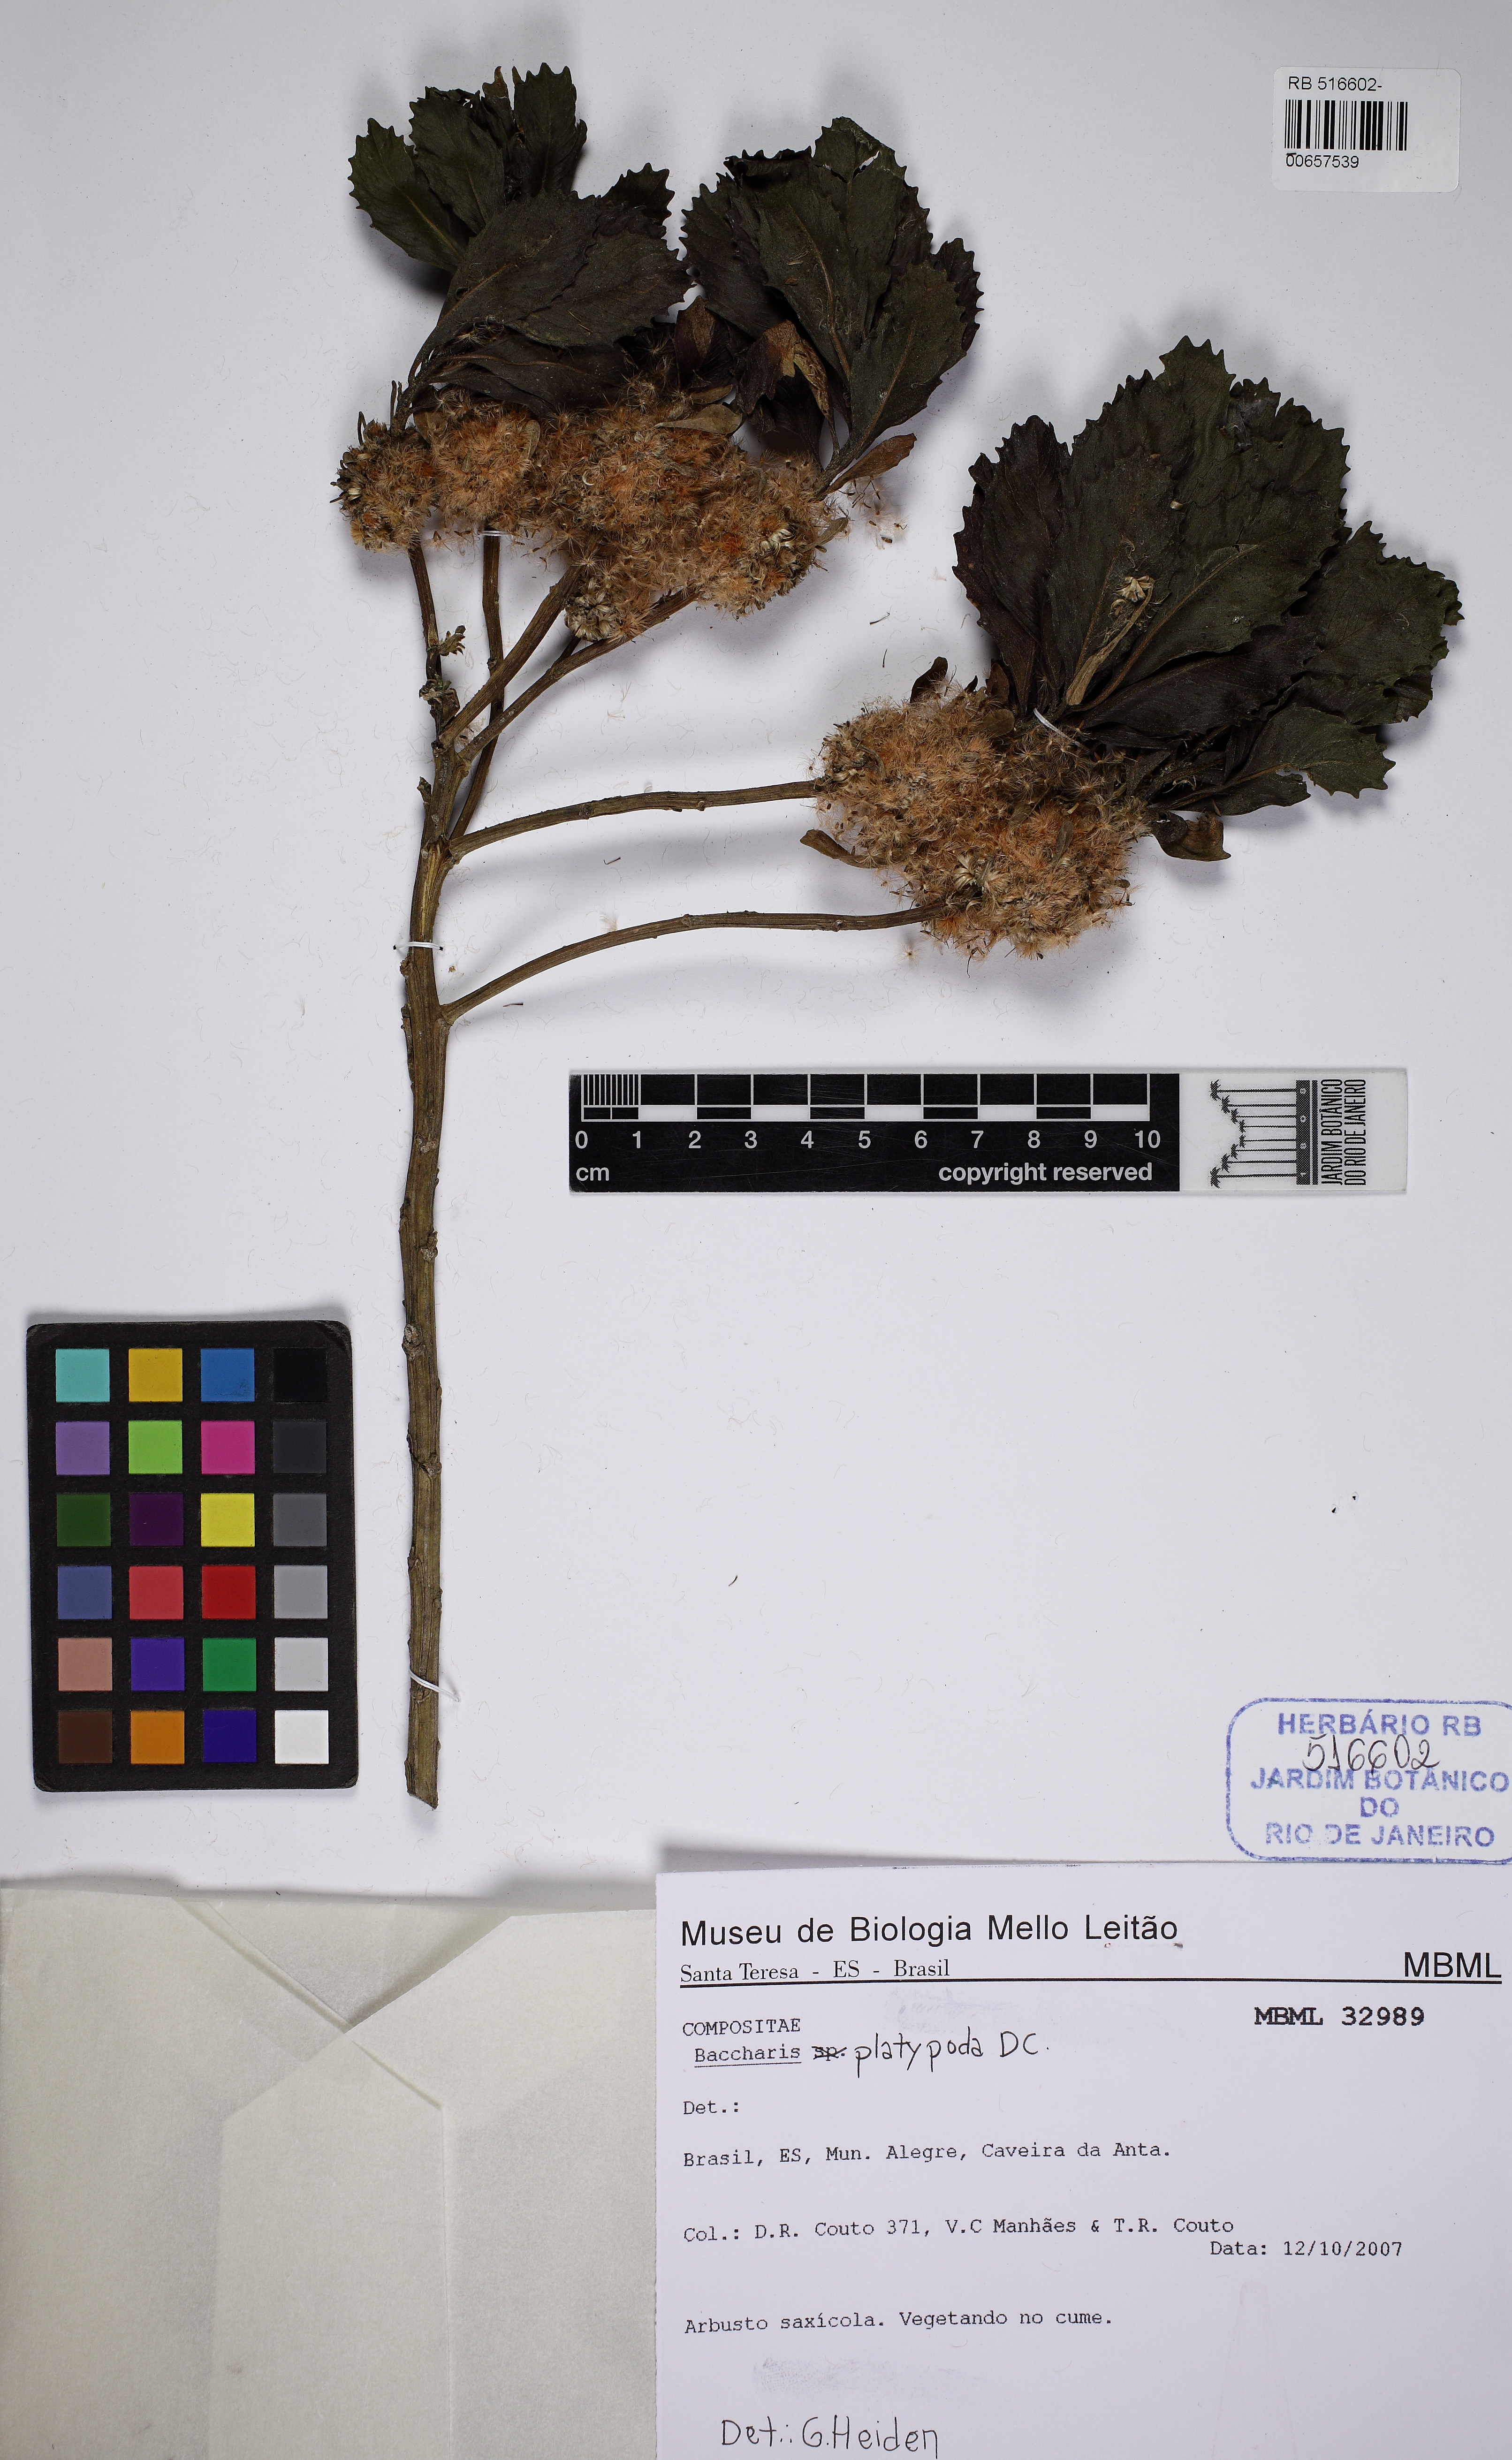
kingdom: Plantae
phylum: Tracheophyta
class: Magnoliopsida
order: Asterales
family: Asteraceae
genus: Baccharis
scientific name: Baccharis platypoda
